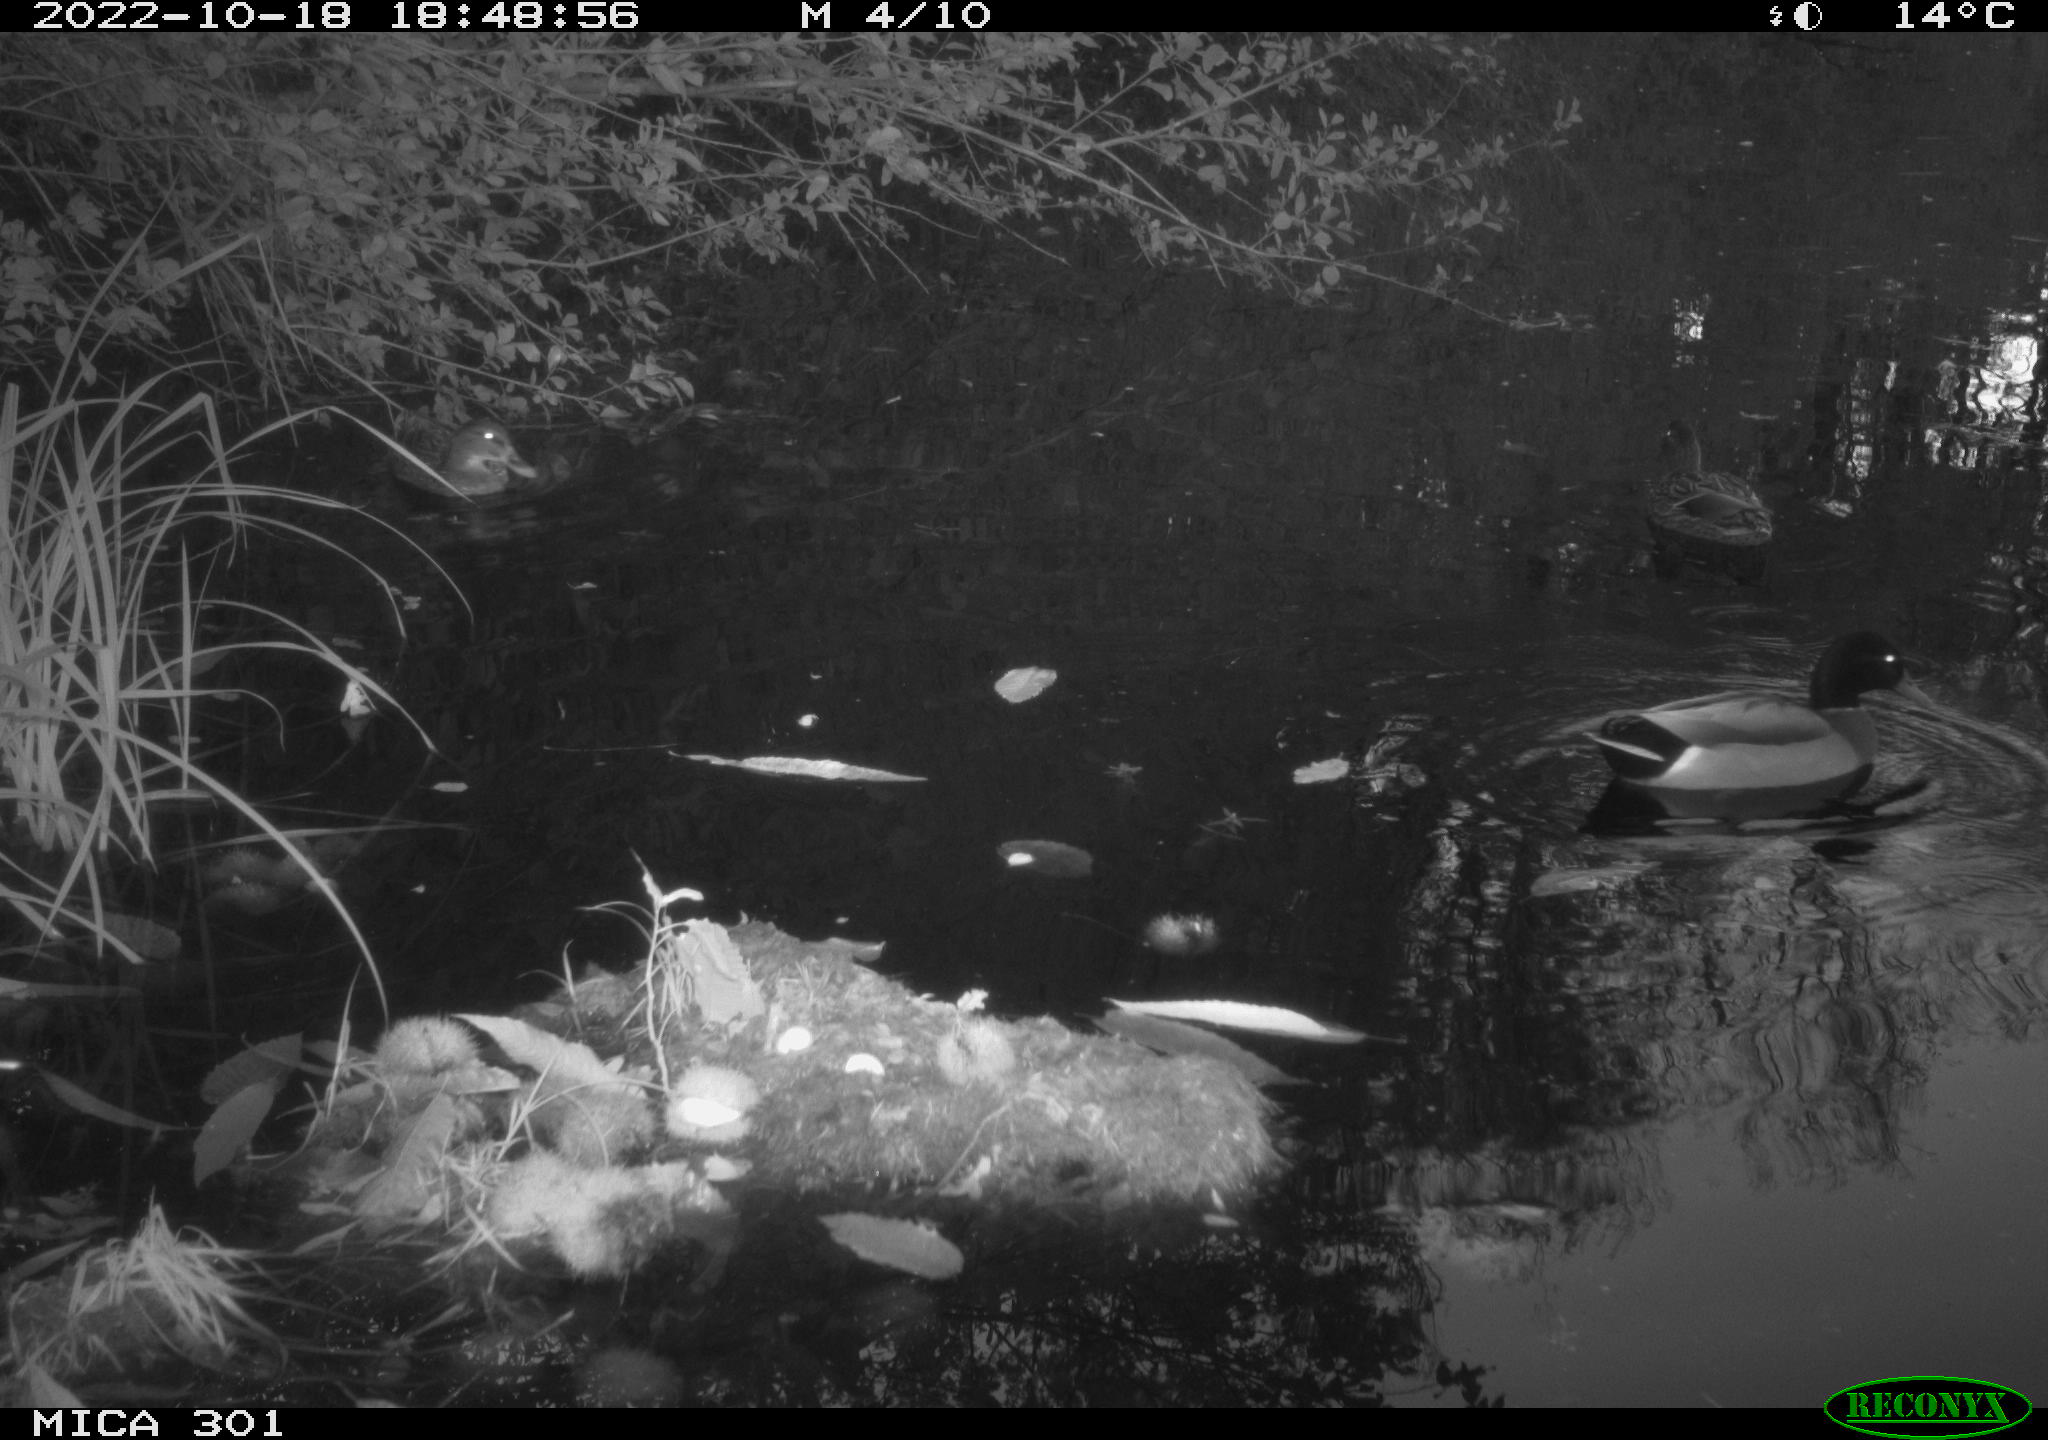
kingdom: Animalia
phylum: Chordata
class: Aves
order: Anseriformes
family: Anatidae
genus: Anas
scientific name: Anas
